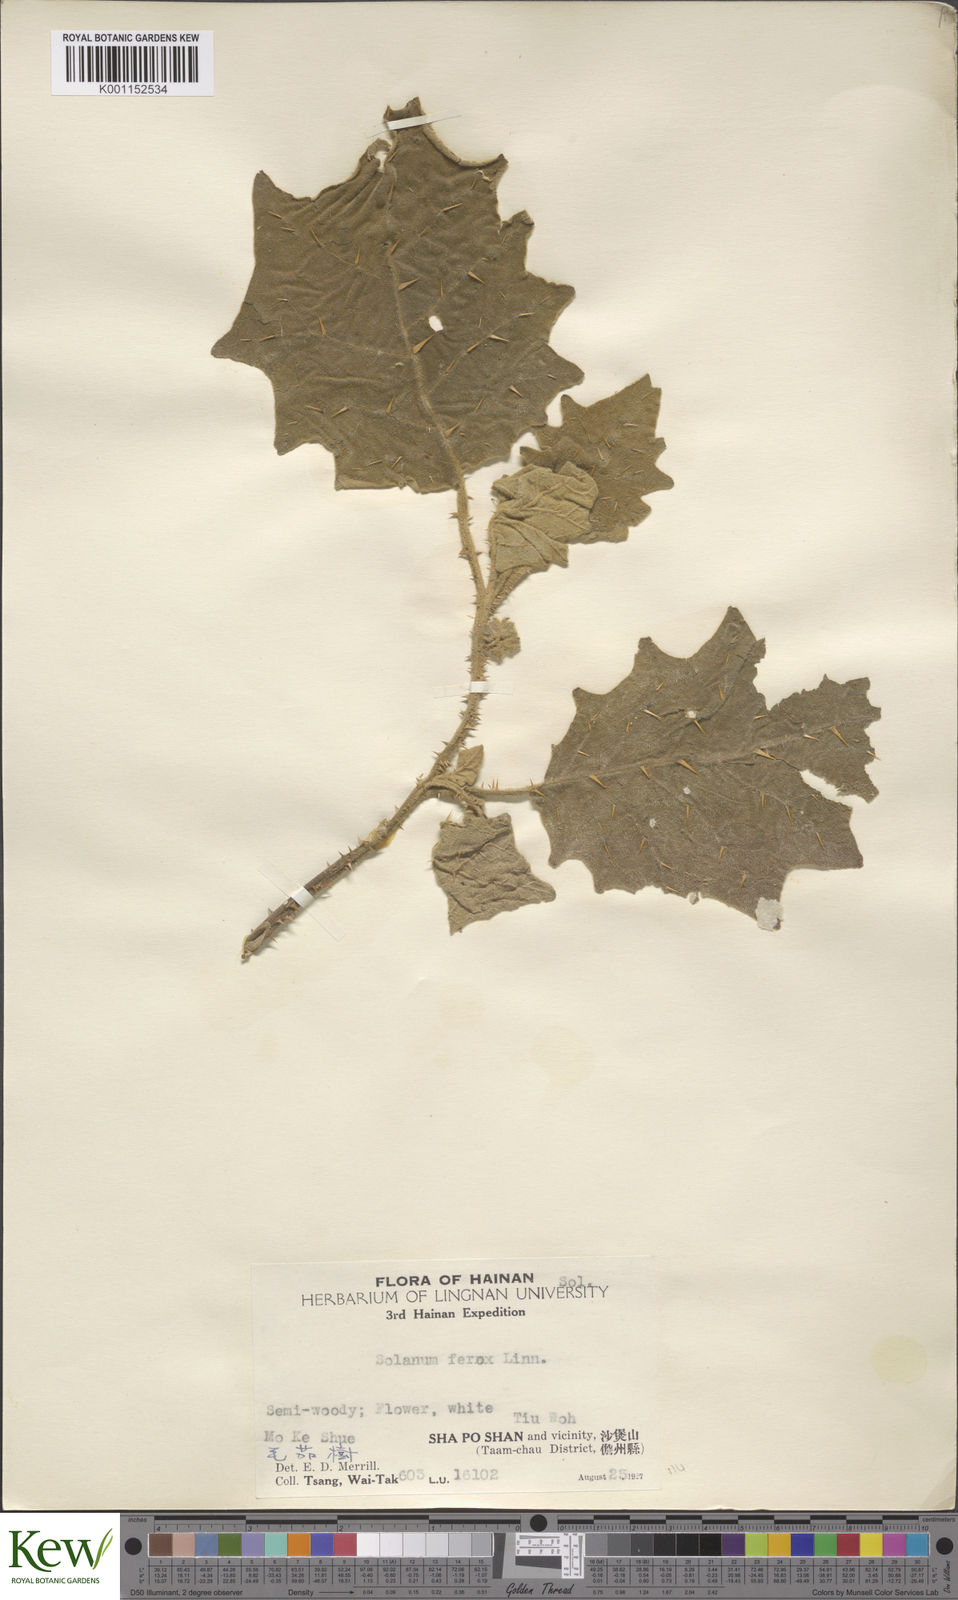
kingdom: Plantae
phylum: Tracheophyta
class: Magnoliopsida
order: Solanales
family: Solanaceae
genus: Solanum
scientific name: Solanum lasiocarpum
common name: Indian nightshade
